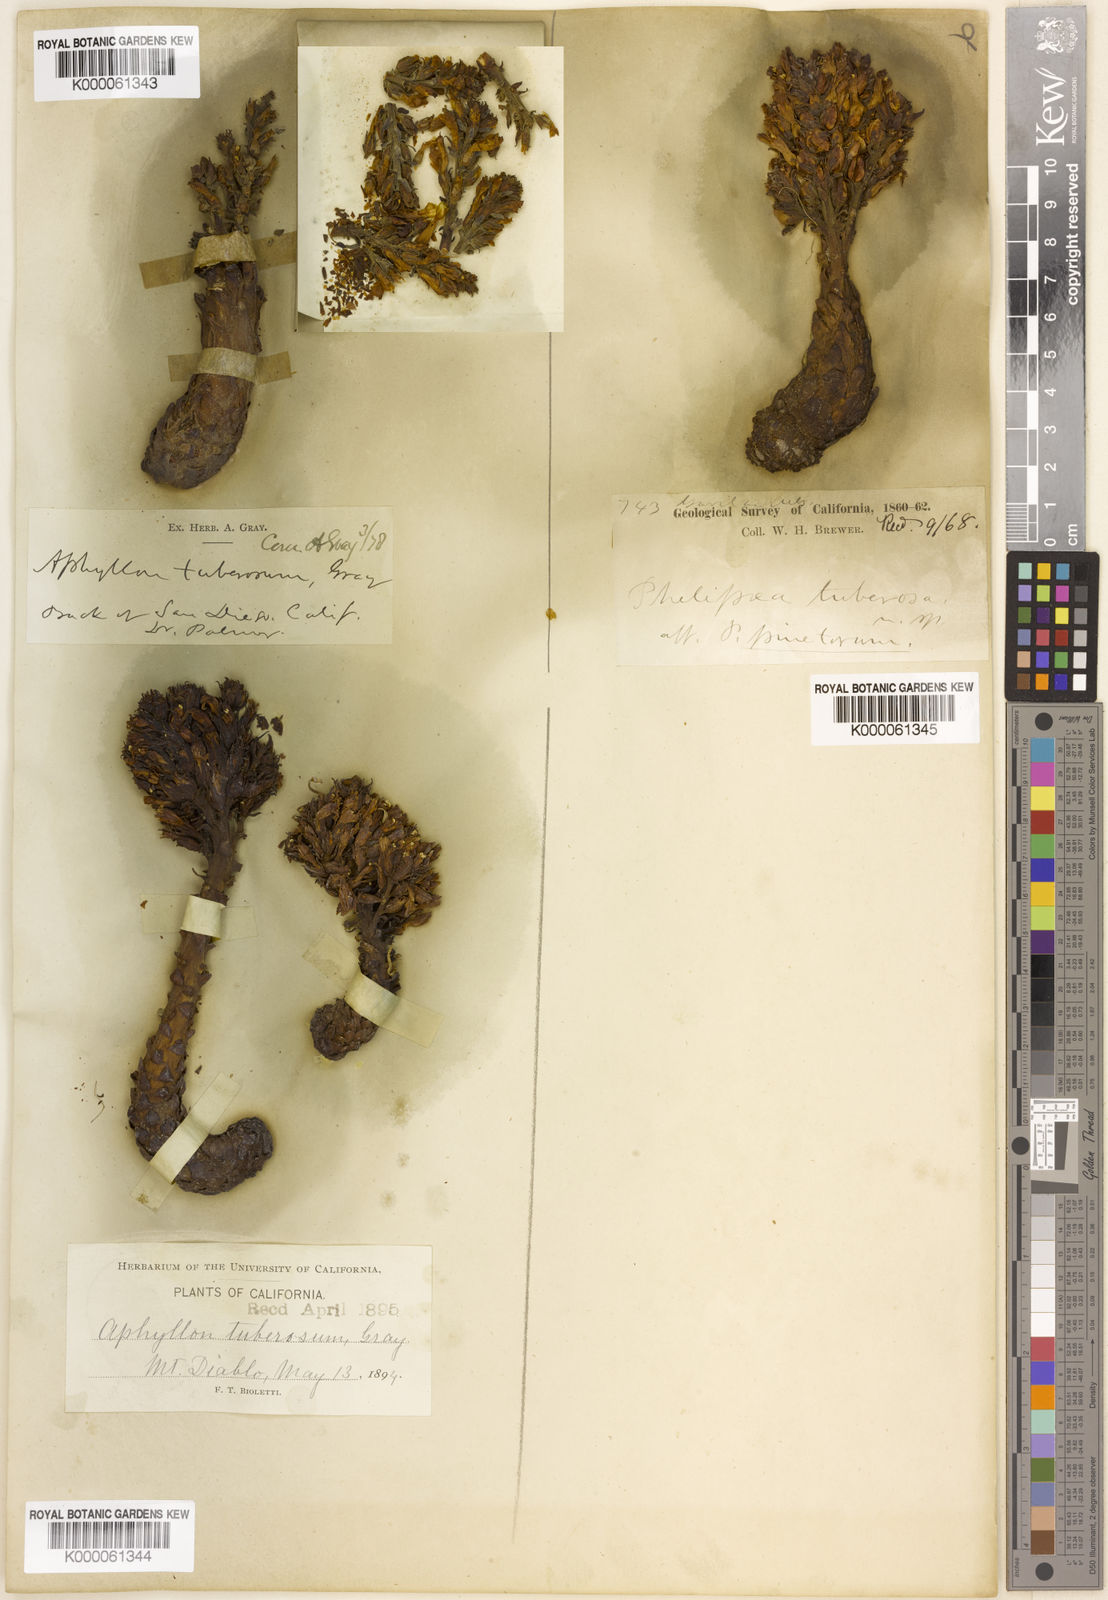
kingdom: Plantae
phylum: Tracheophyta
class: Magnoliopsida
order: Lamiales
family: Orobanchaceae
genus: Aphyllon
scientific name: Aphyllon tuberosum
